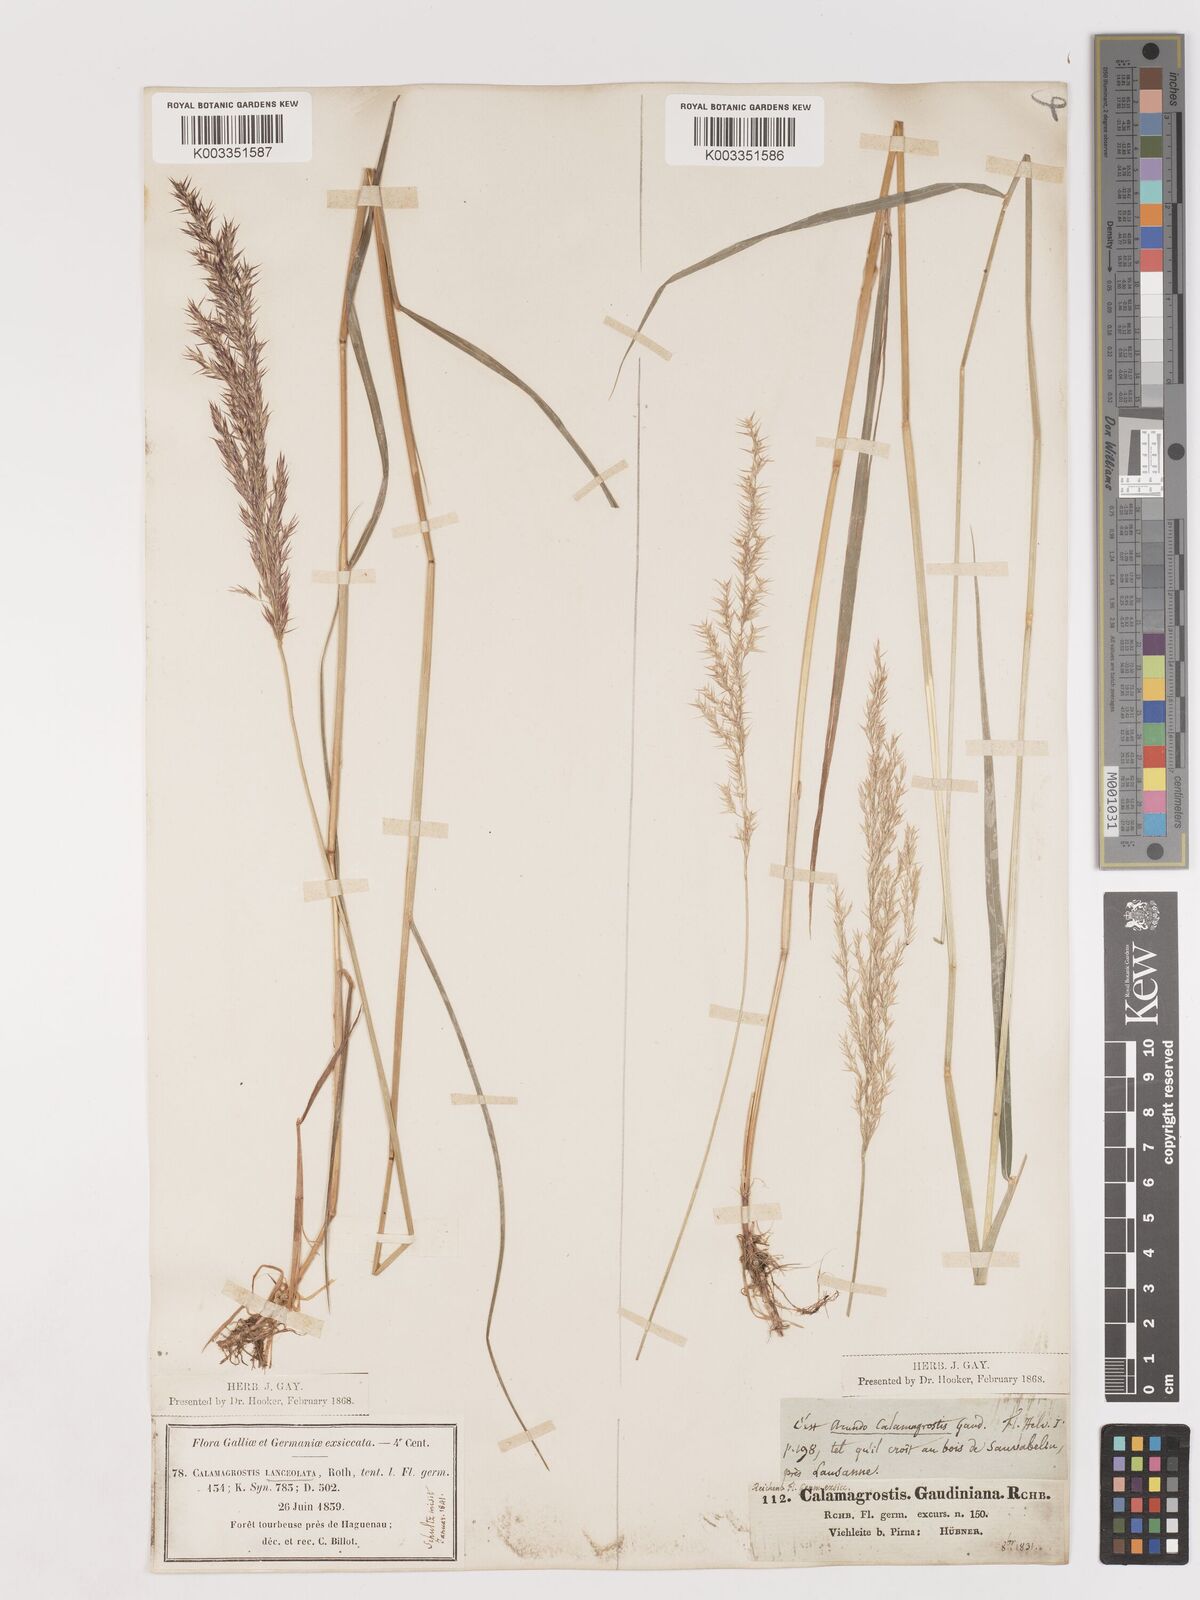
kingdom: Plantae
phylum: Tracheophyta
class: Liliopsida
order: Poales
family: Poaceae
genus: Calamagrostis
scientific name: Calamagrostis canescens
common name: Purple small-reed
